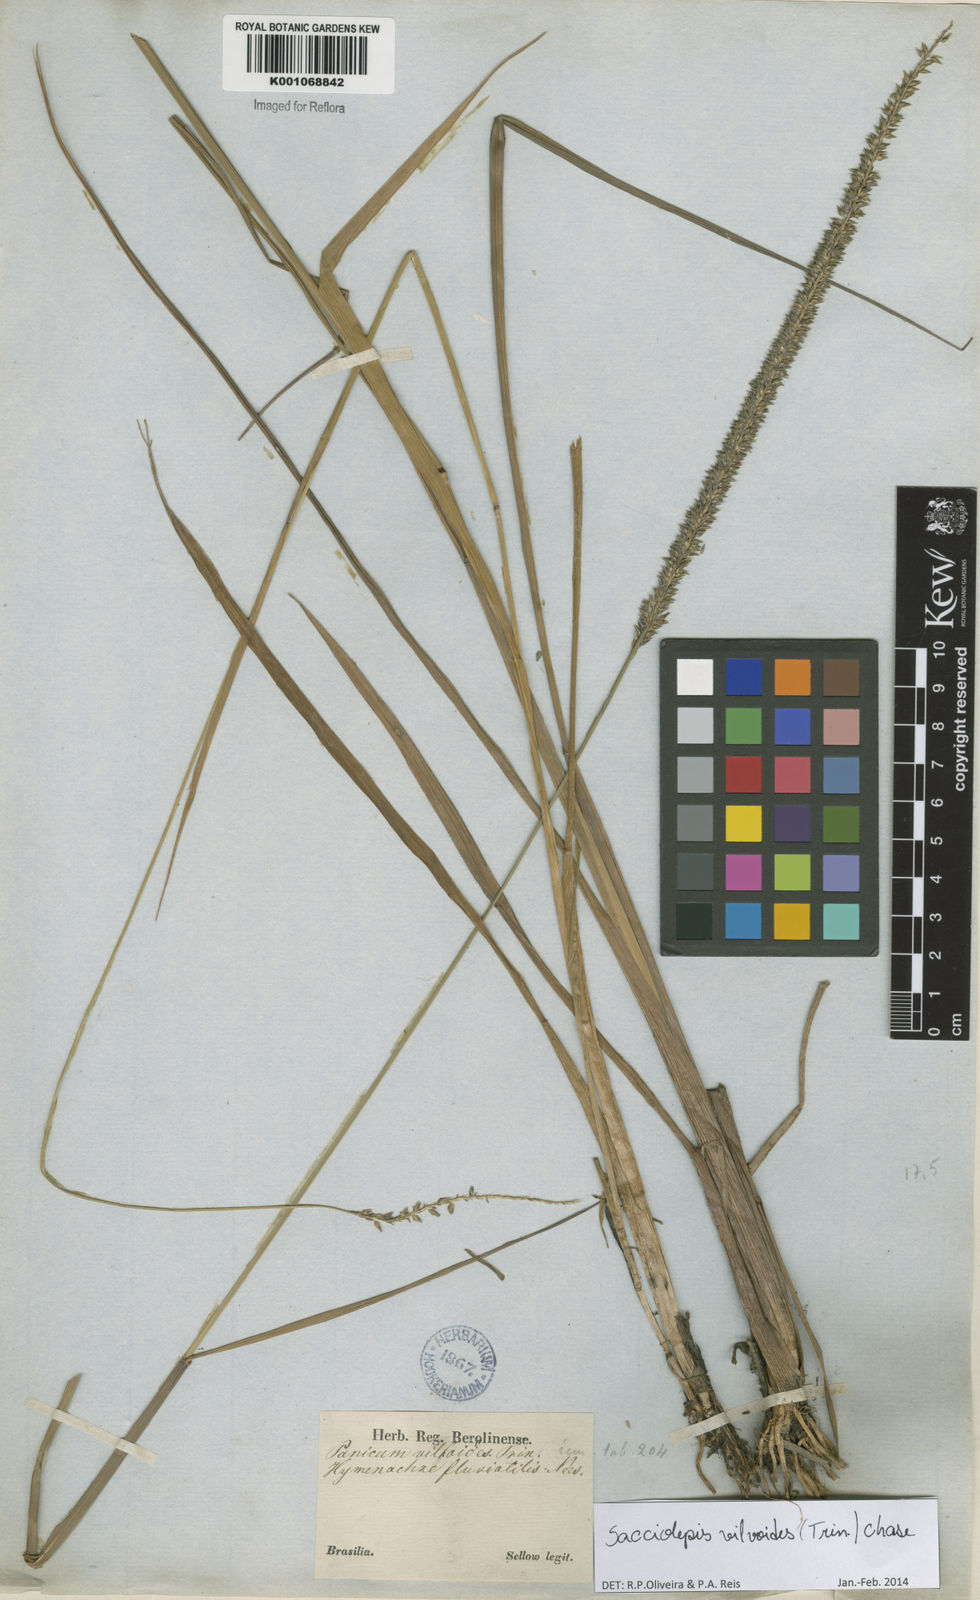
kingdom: Plantae
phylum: Tracheophyta
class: Liliopsida
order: Poales
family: Poaceae
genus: Sacciolepis
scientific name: Sacciolepis vilvoides
